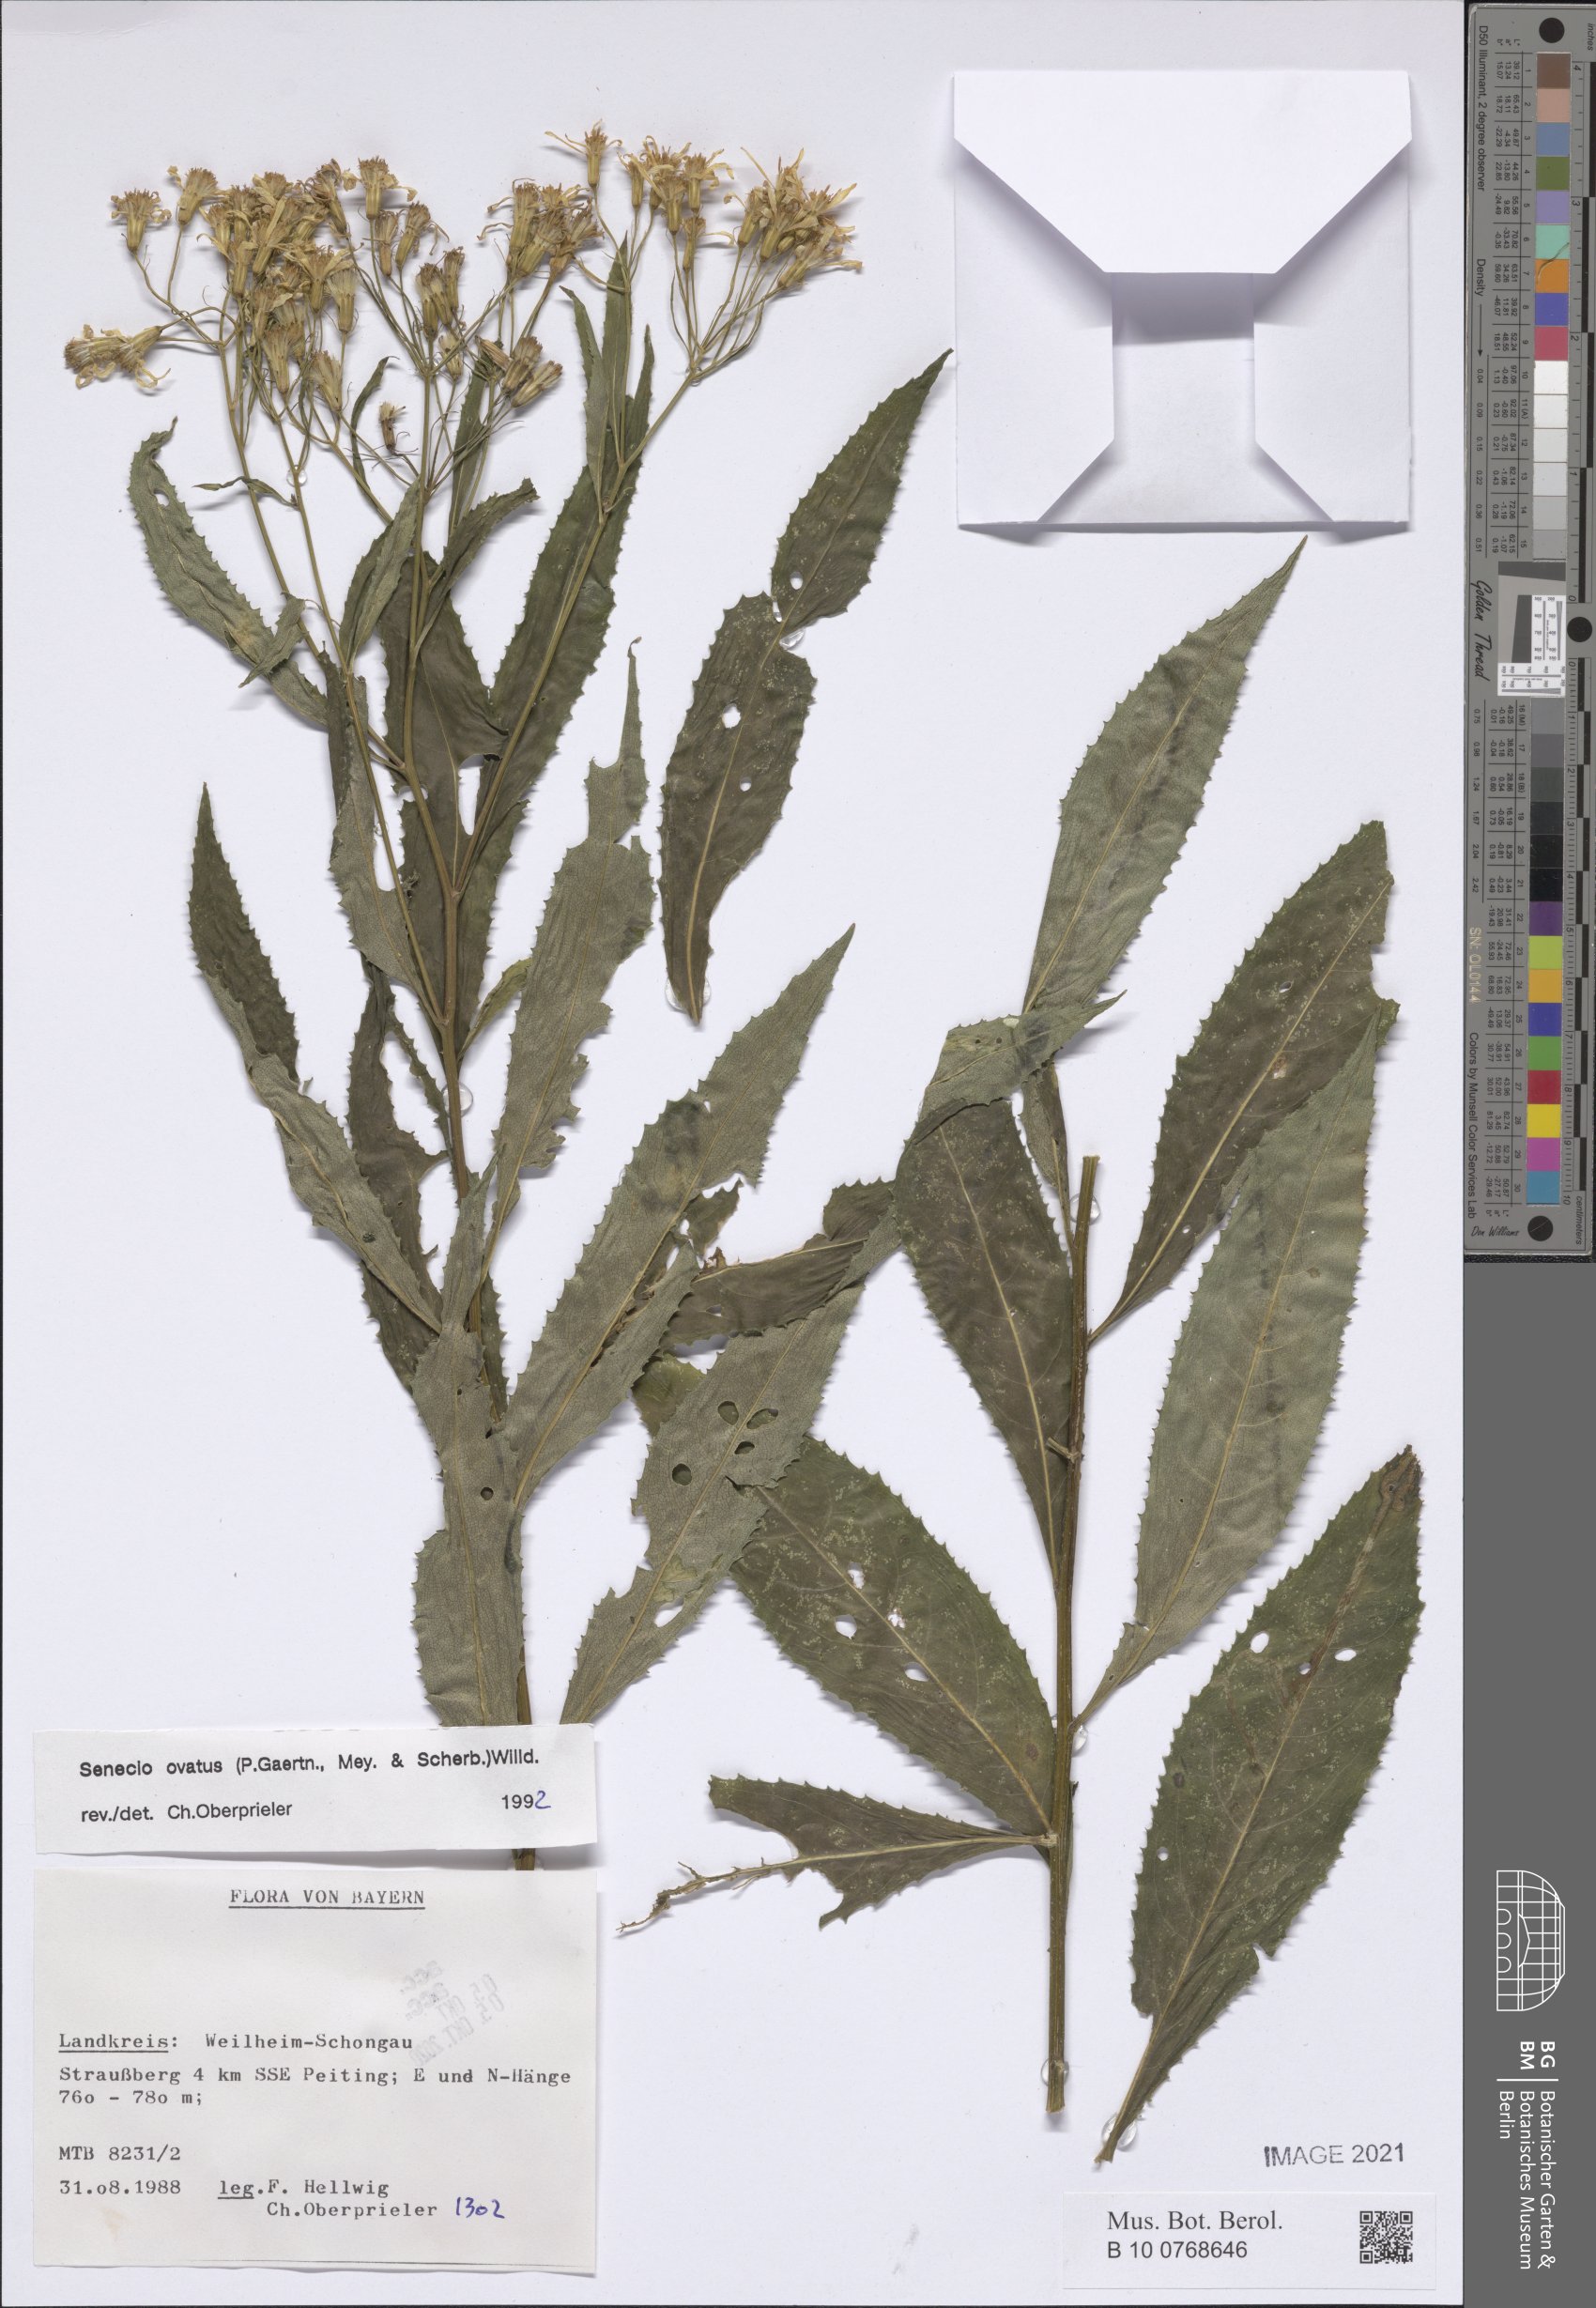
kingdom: Plantae
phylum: Tracheophyta
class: Magnoliopsida
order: Asterales
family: Asteraceae
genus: Senecio
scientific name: Senecio ovatus
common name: Wood ragwort
